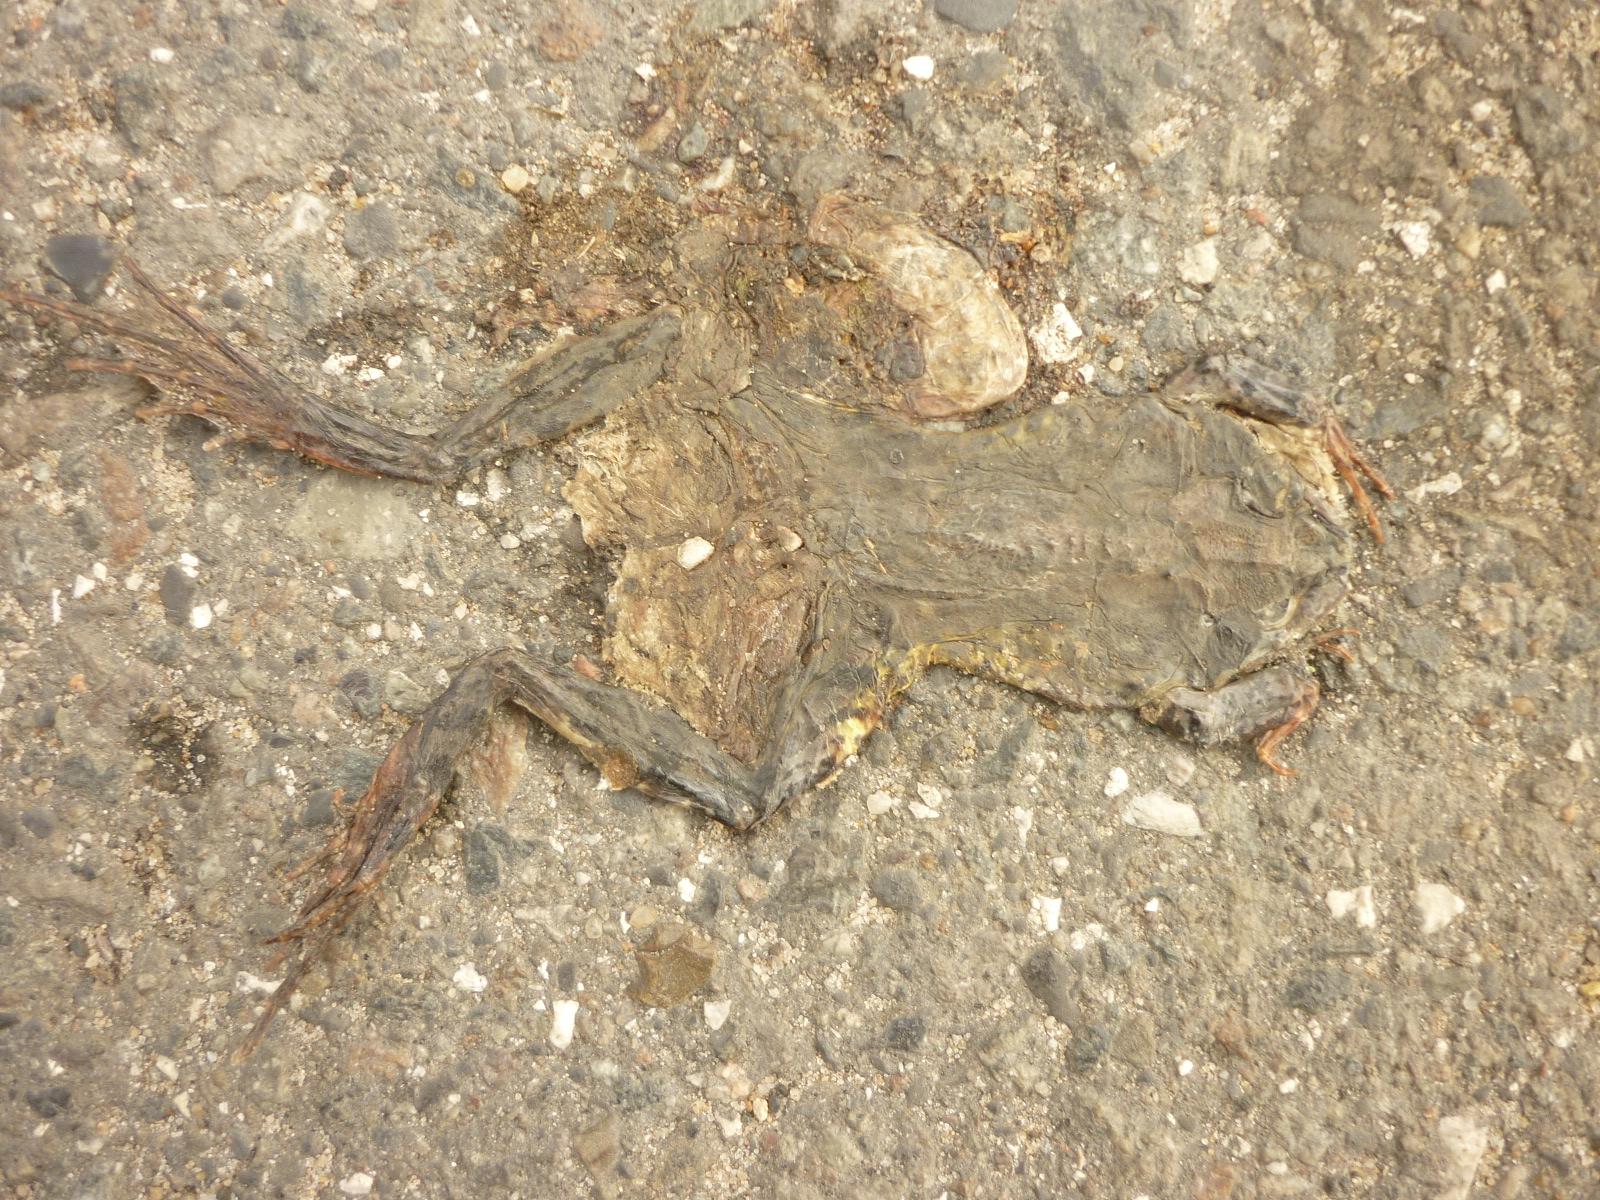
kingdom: Animalia
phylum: Chordata
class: Amphibia
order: Anura
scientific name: Anura
